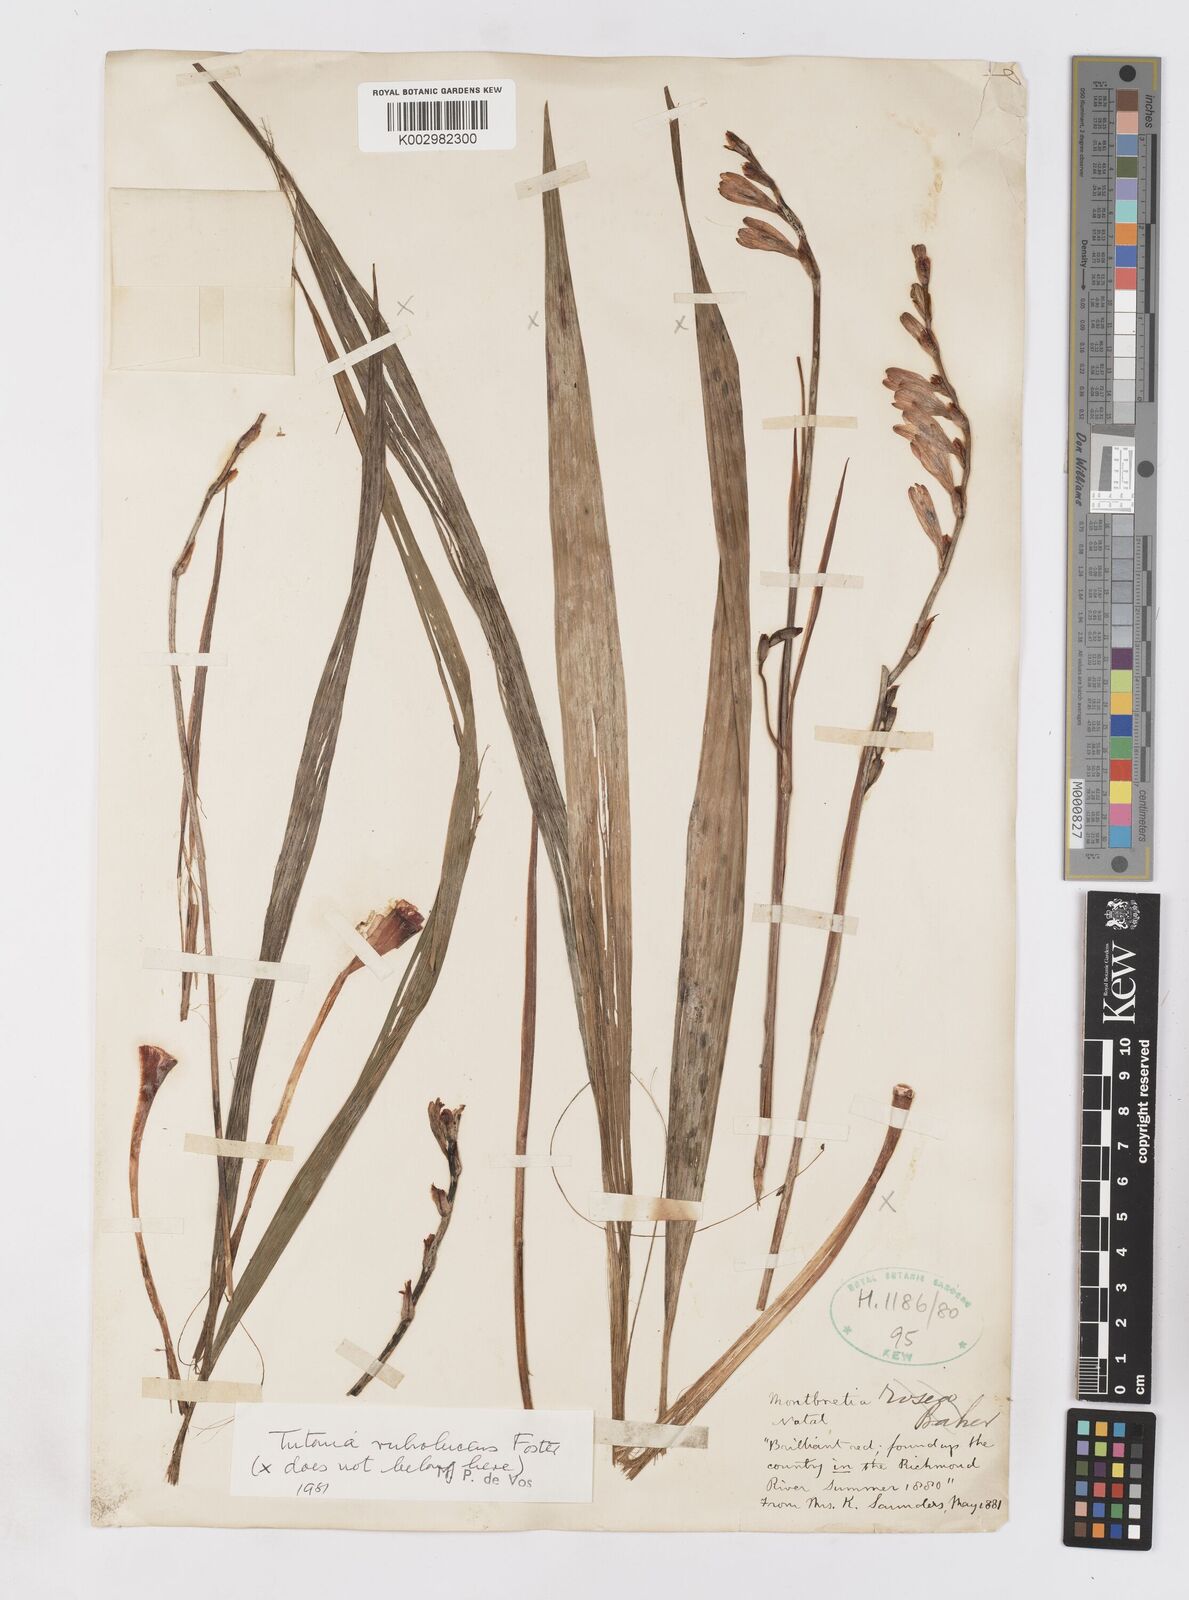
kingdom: Plantae
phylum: Tracheophyta
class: Liliopsida
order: Asparagales
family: Iridaceae
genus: Tritonia
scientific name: Tritonia disticha
